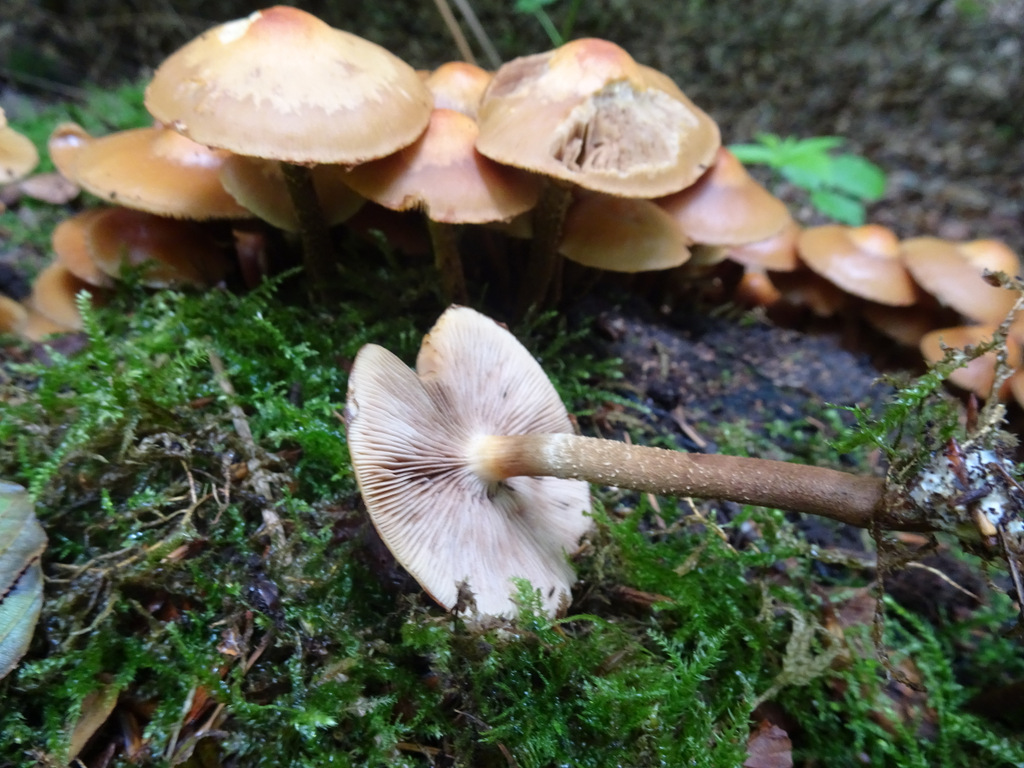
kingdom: Fungi
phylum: Basidiomycota
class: Agaricomycetes
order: Agaricales
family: Strophariaceae
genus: Kuehneromyces
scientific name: Kuehneromyces mutabilis
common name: foranderlig skælhat
